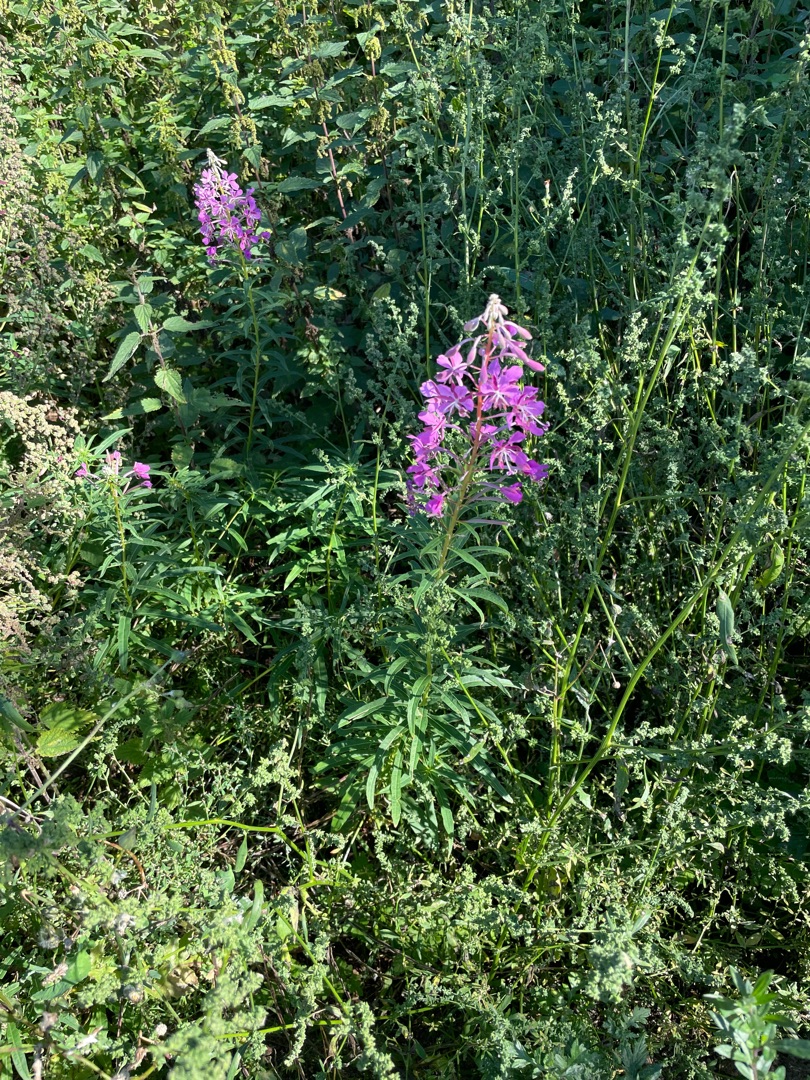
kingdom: Plantae
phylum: Tracheophyta
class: Magnoliopsida
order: Myrtales
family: Onagraceae
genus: Chamaenerion
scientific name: Chamaenerion angustifolium
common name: Gederams
